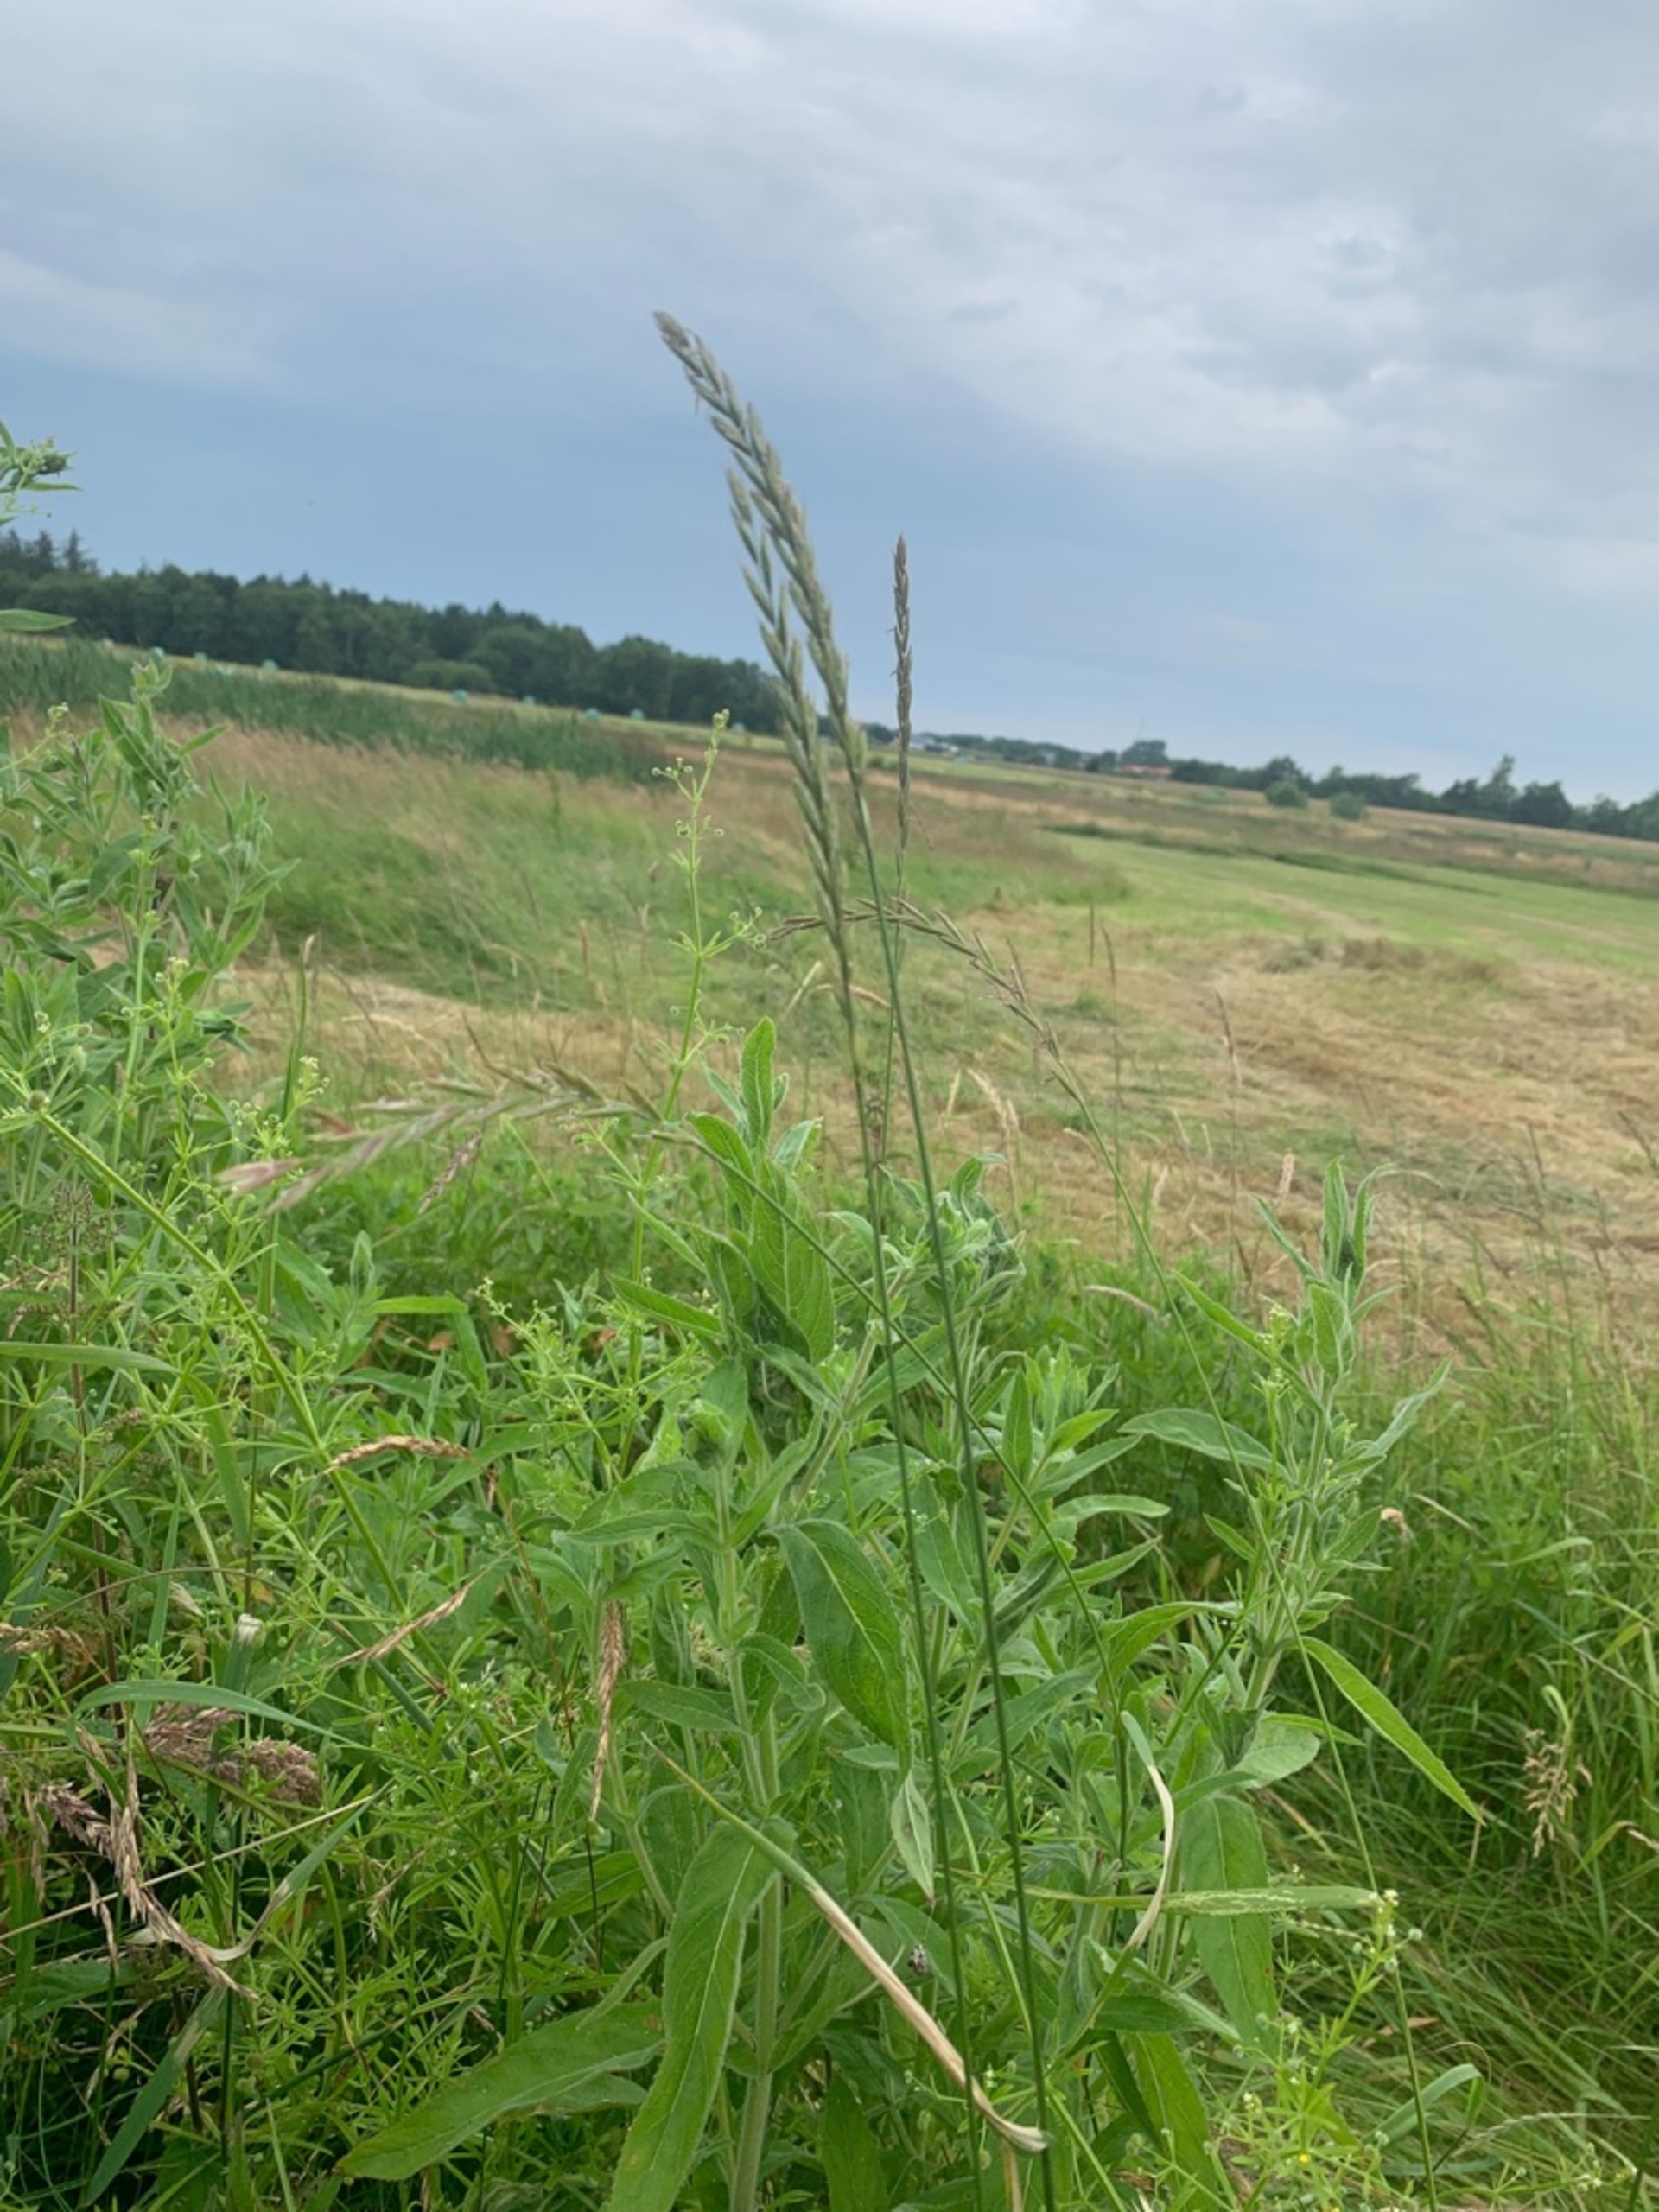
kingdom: Plantae
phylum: Tracheophyta
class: Liliopsida
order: Poales
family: Poaceae
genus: Elymus
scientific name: Elymus repens
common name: Almindelig kvik
